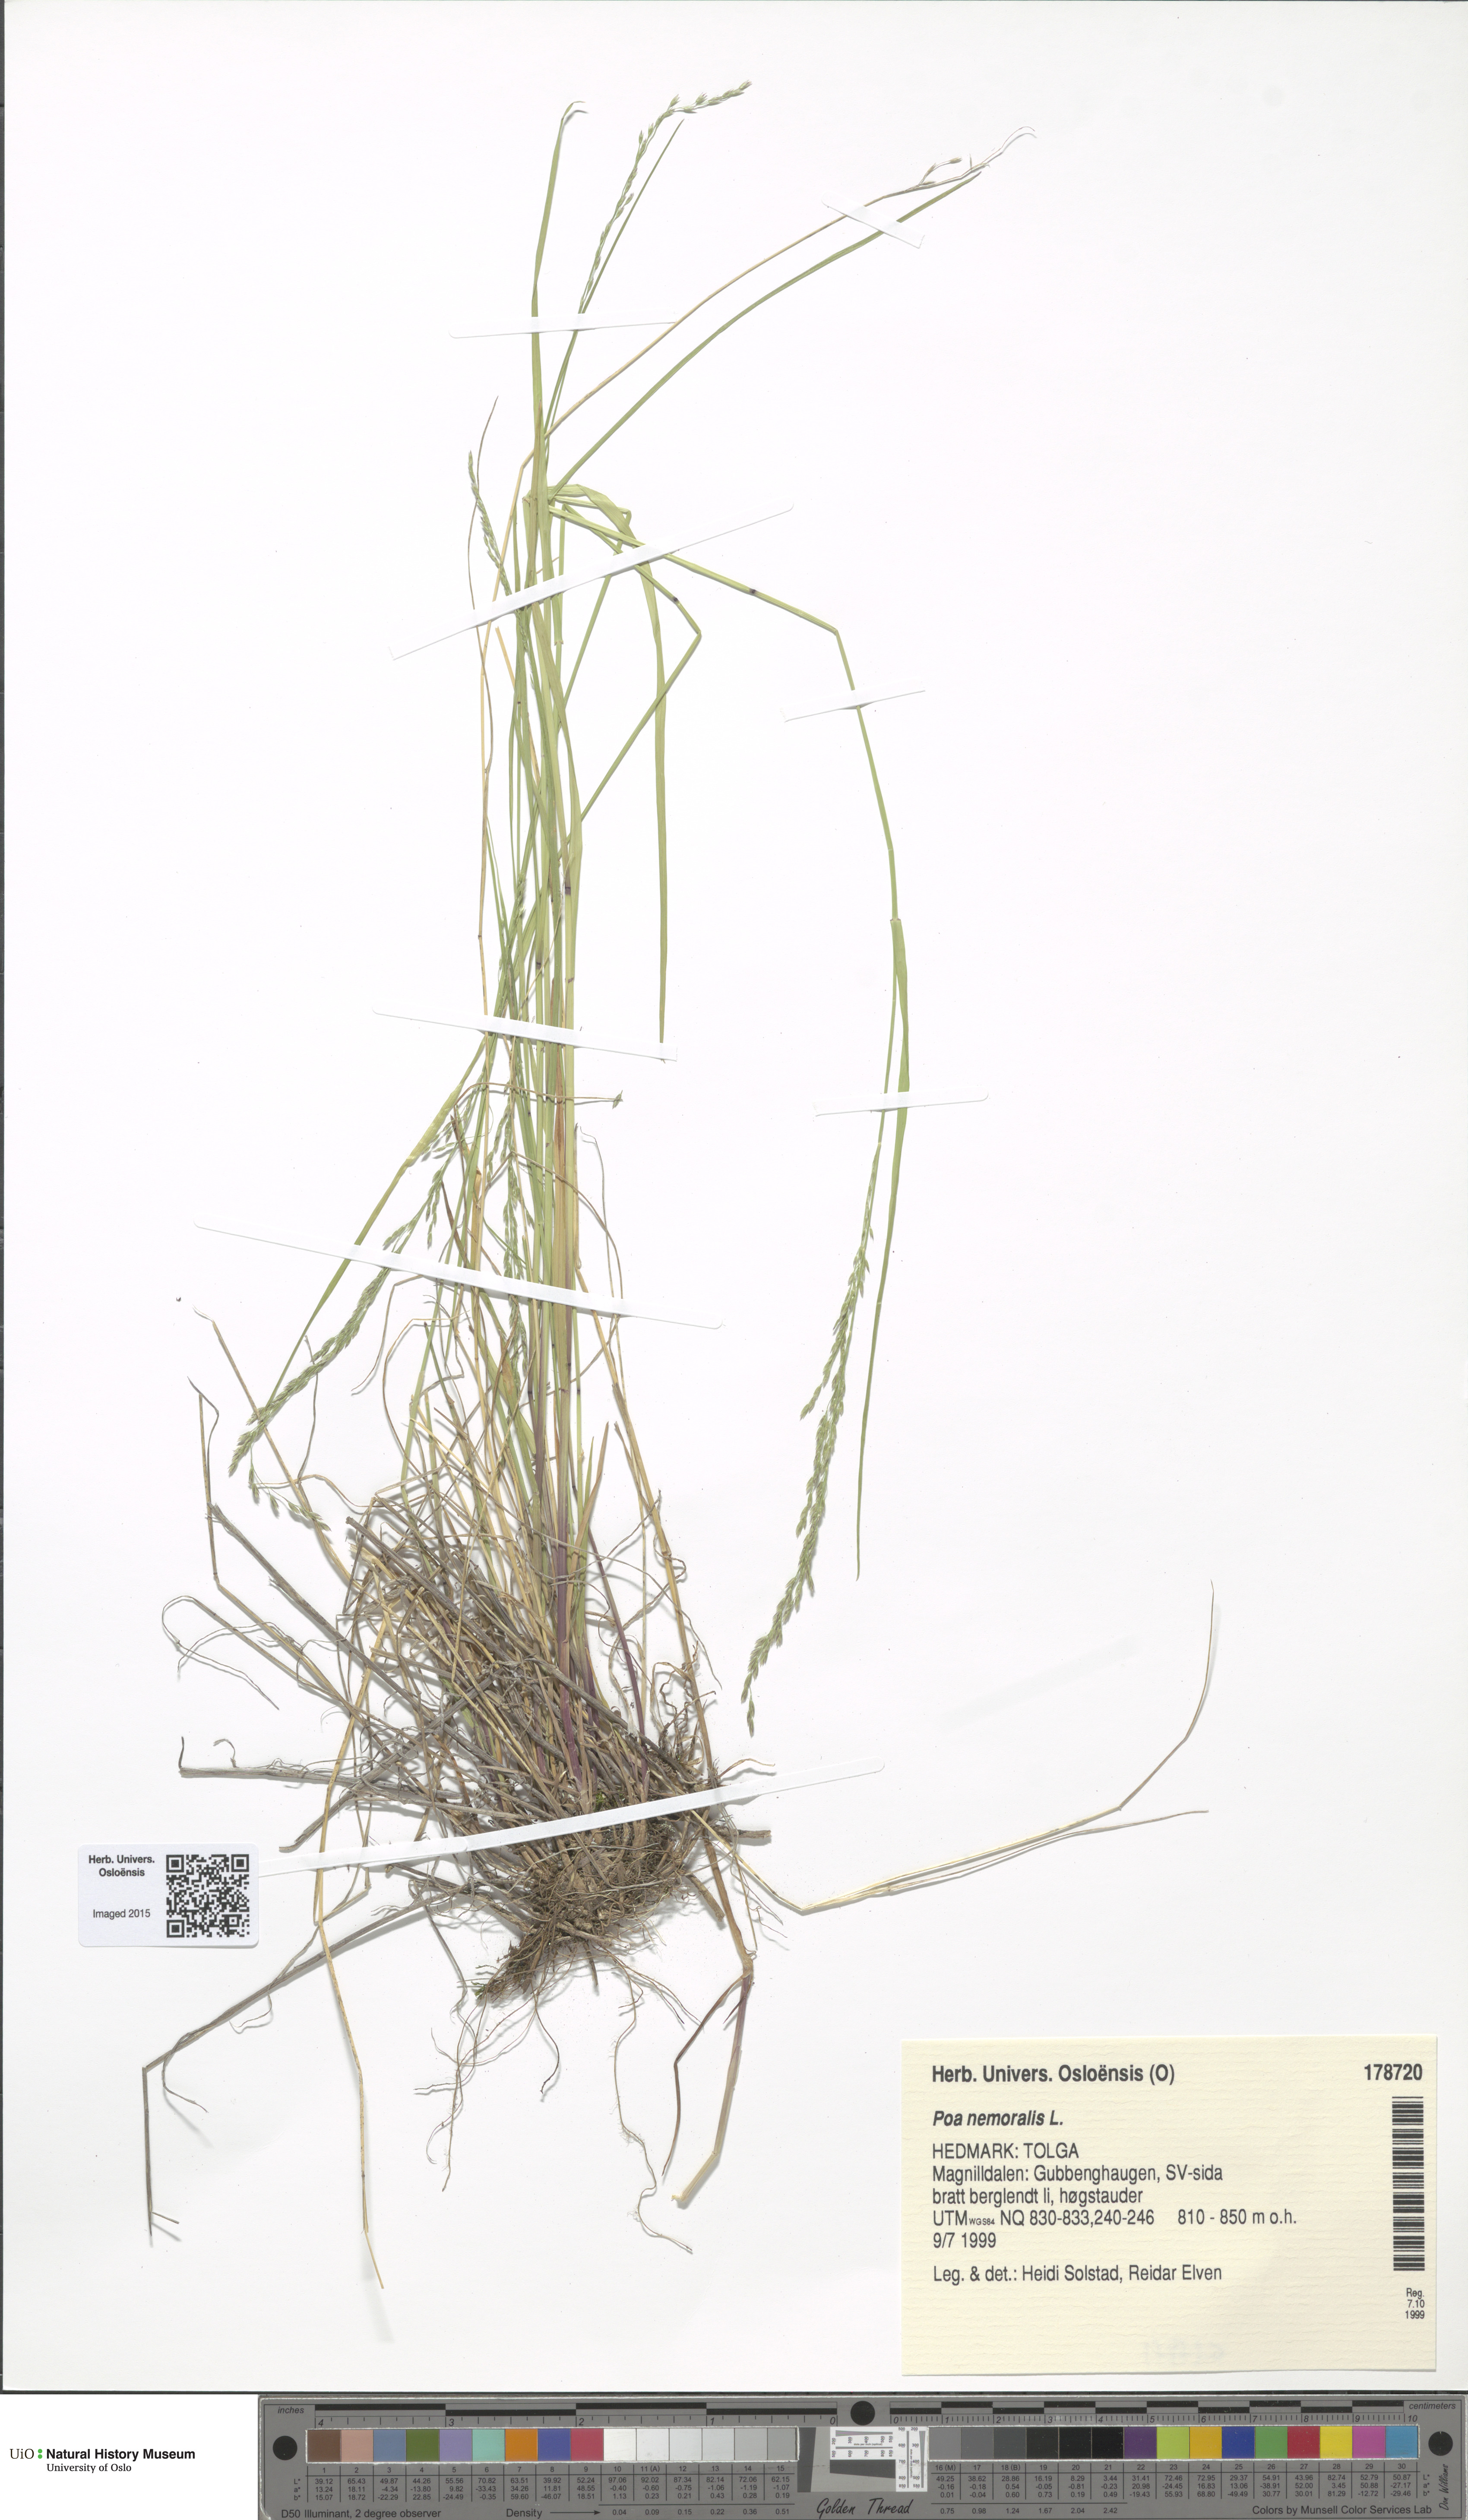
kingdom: Plantae
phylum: Tracheophyta
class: Liliopsida
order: Poales
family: Poaceae
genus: Poa
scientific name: Poa nemoralis
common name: Wood bluegrass
